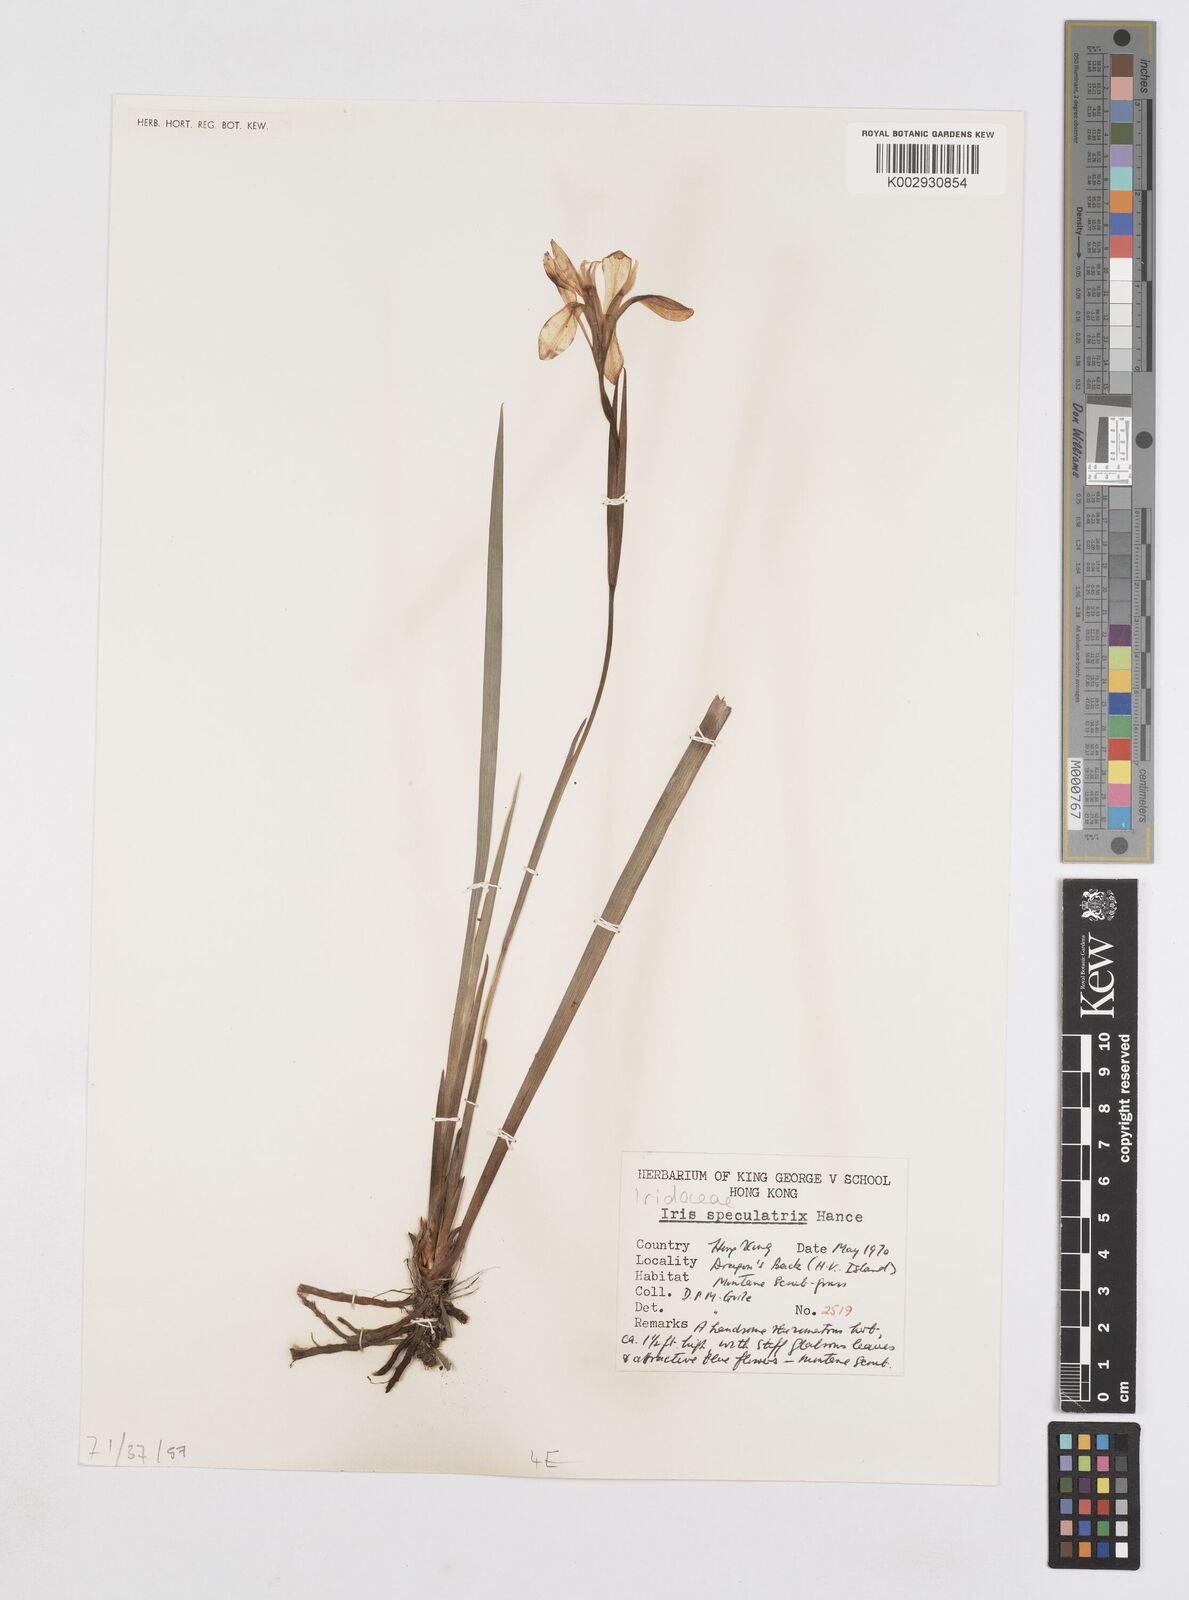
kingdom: Plantae
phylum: Tracheophyta
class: Liliopsida
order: Asparagales
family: Iridaceae
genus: Iris
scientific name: Iris speculatrix
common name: Small-flower iris
